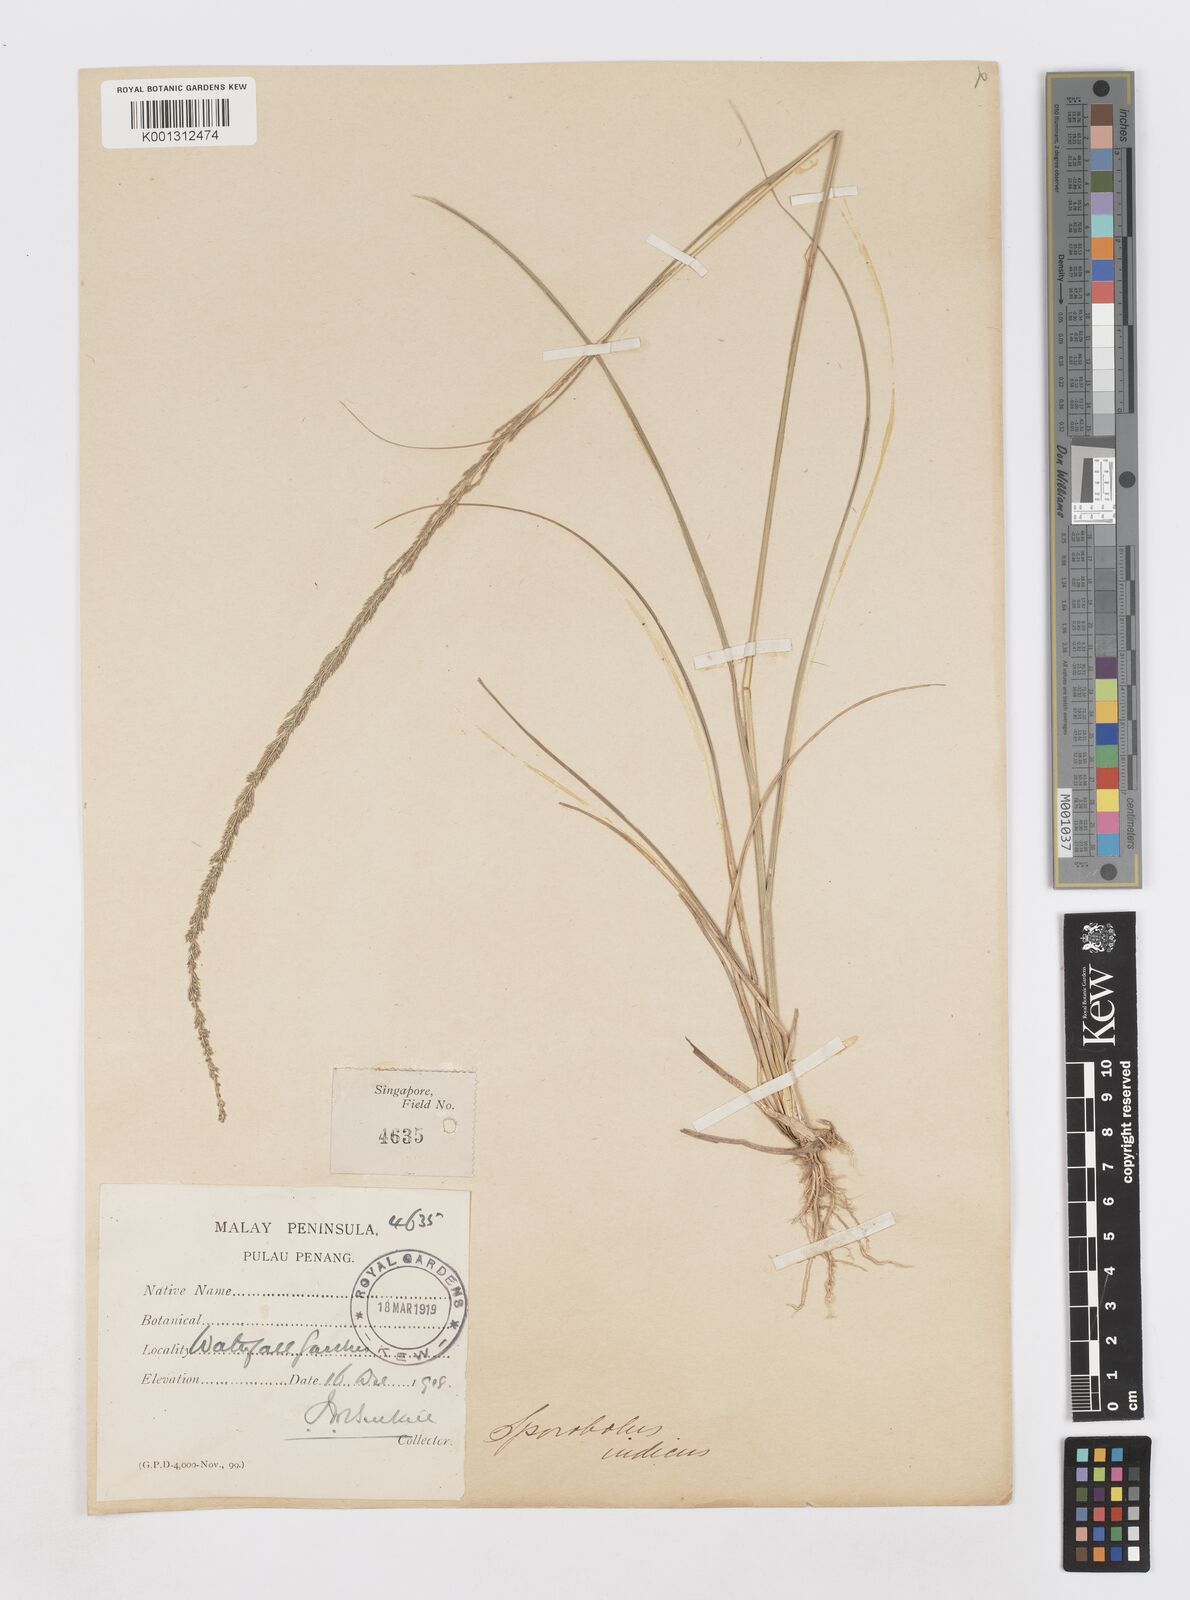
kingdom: Plantae
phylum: Tracheophyta
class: Liliopsida
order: Poales
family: Poaceae
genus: Sporobolus
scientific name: Sporobolus fertilis
